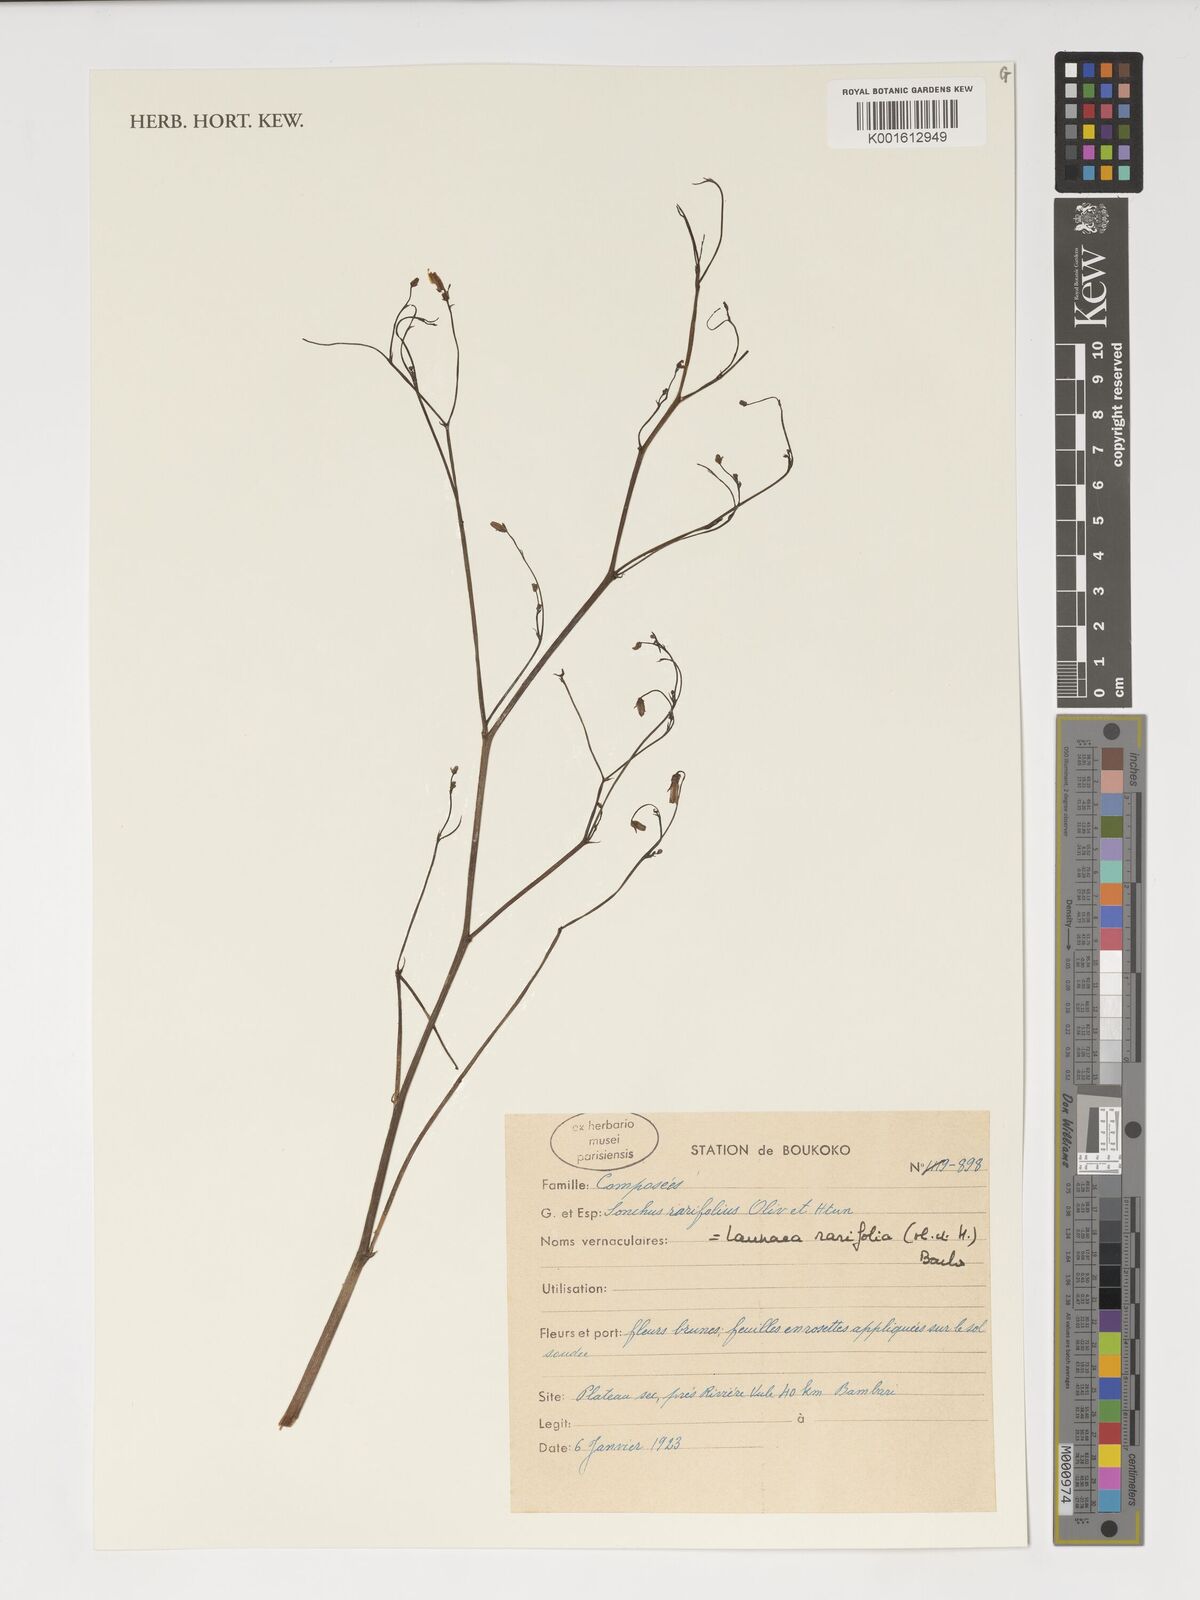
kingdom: Plantae
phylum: Tracheophyta
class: Magnoliopsida
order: Asterales
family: Asteraceae
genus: Launaea
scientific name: Launaea rarifolia
